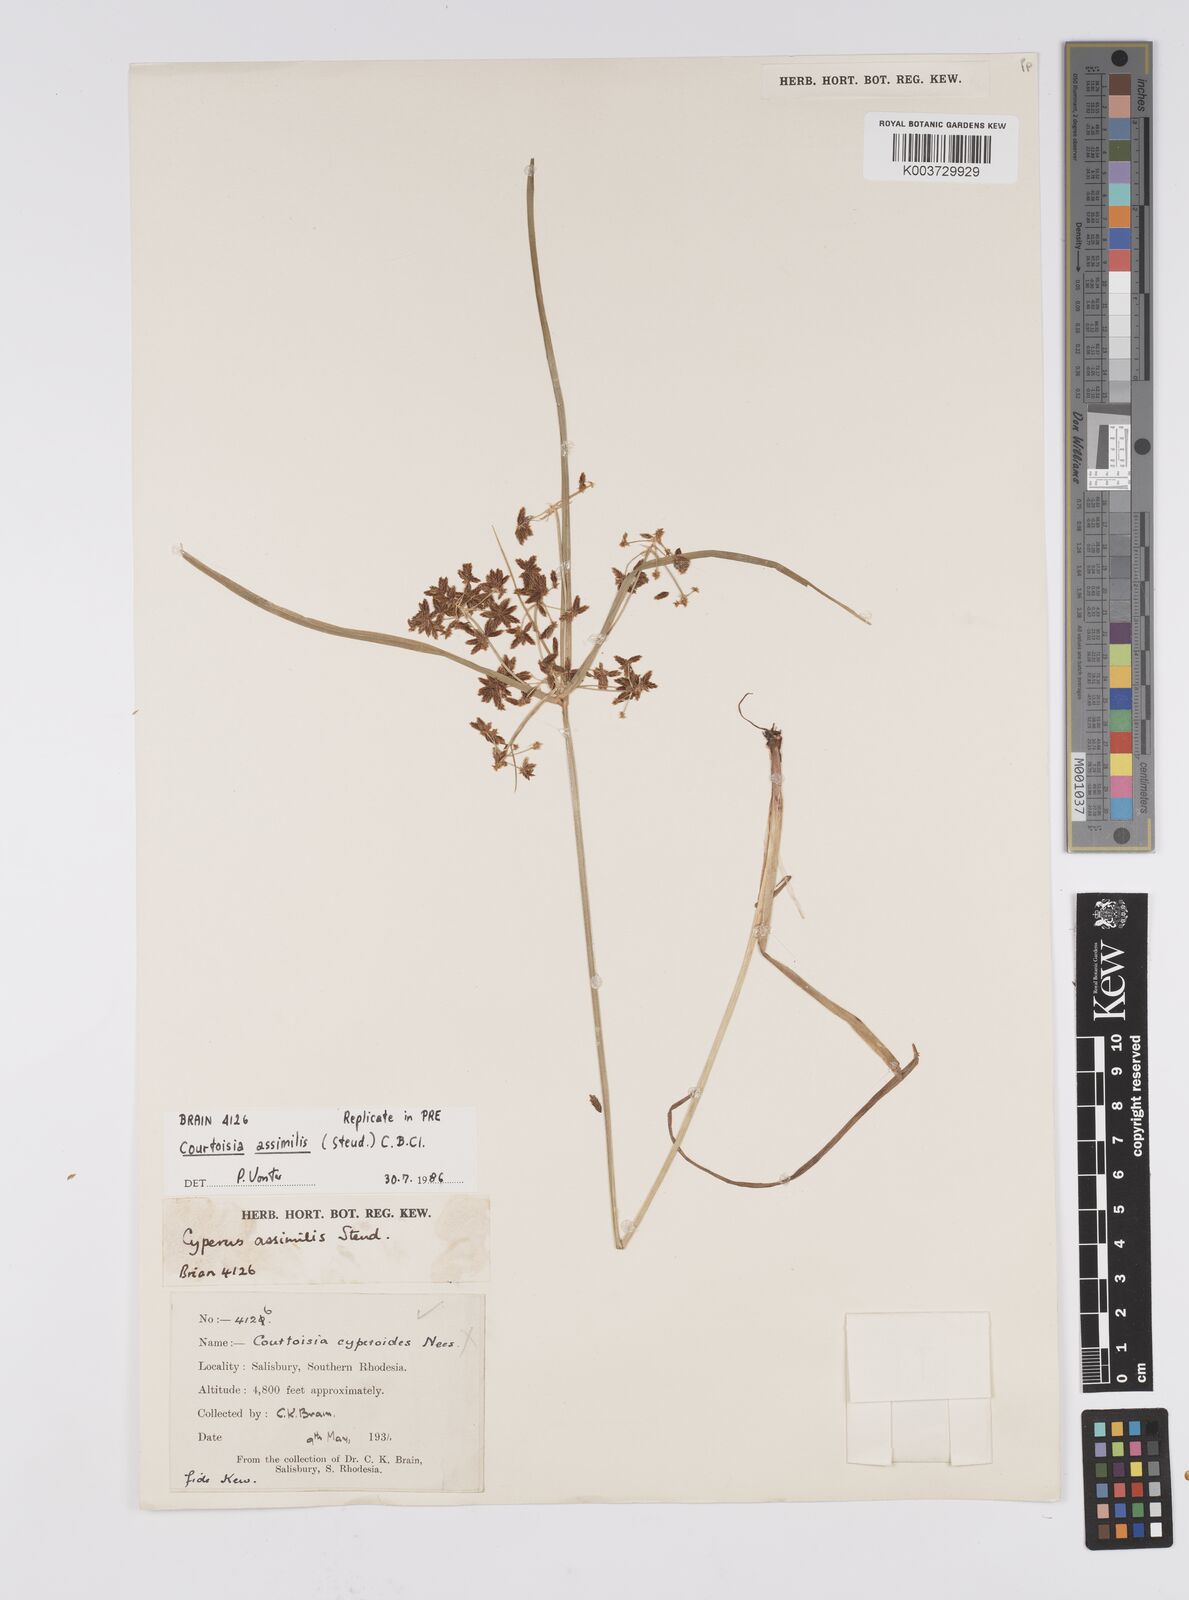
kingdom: Plantae
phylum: Tracheophyta
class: Liliopsida
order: Poales
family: Cyperaceae
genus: Cyperus
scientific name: Cyperus assimilis
